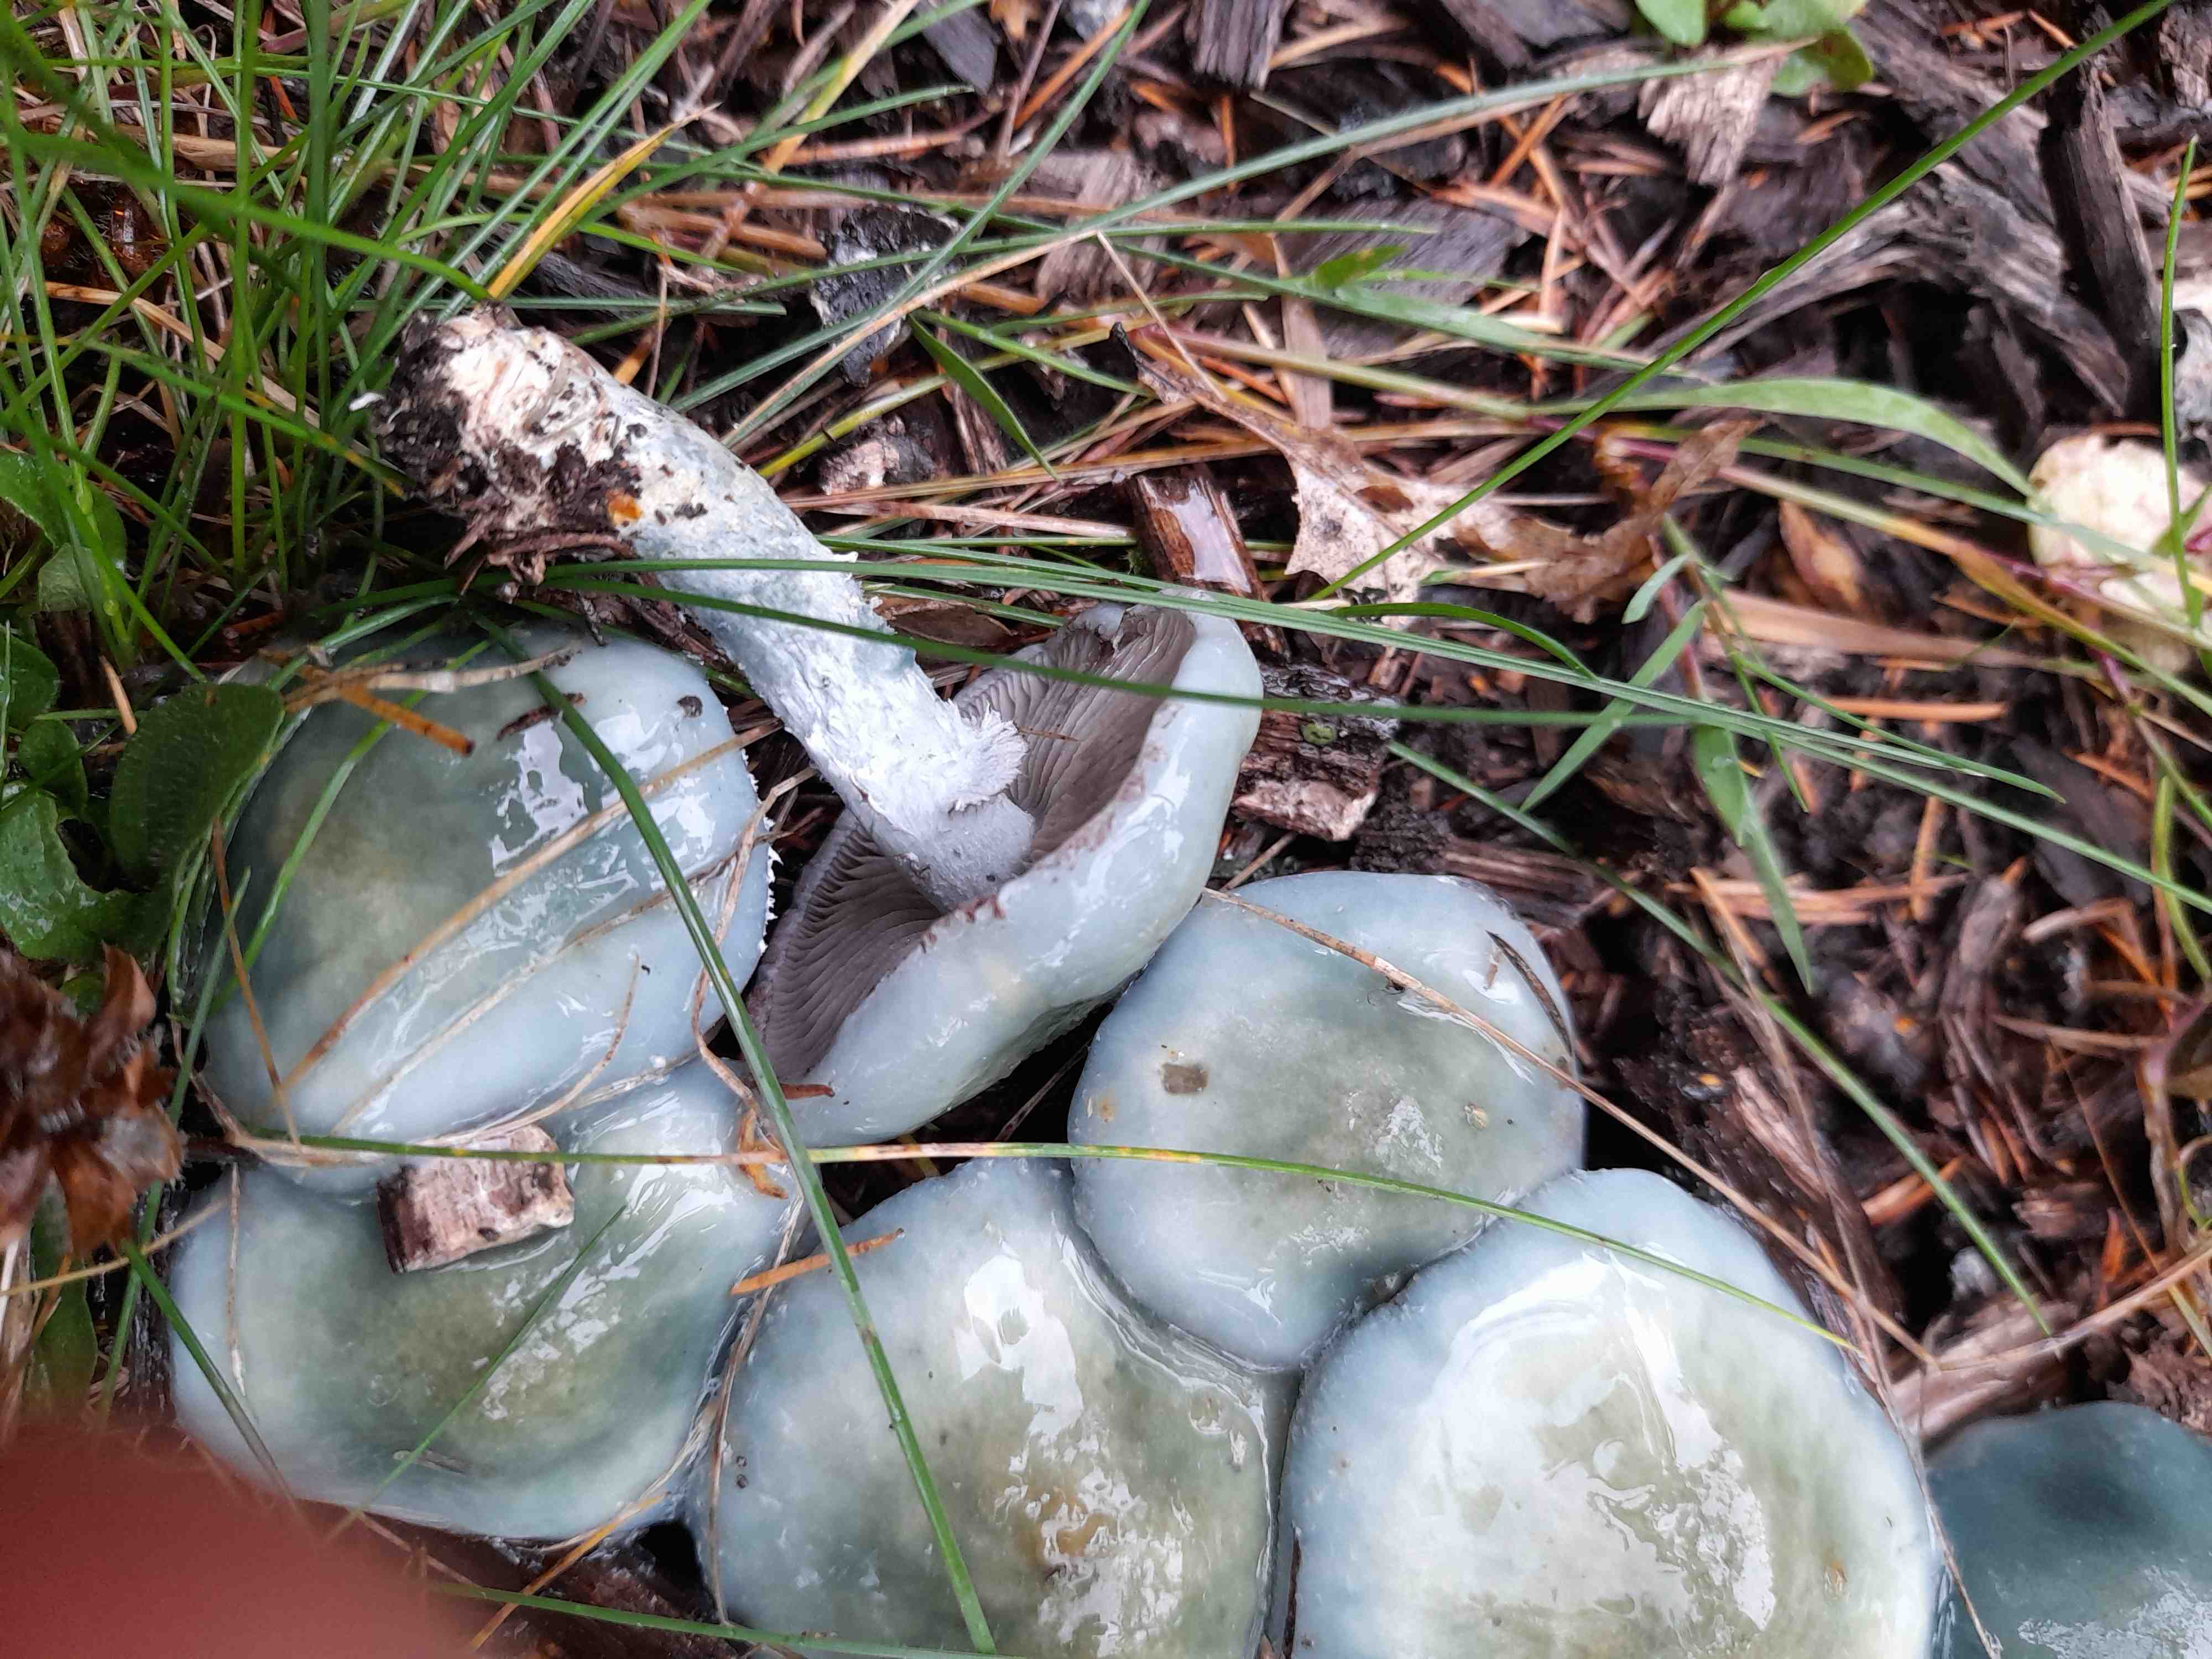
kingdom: Fungi
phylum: Basidiomycota
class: Agaricomycetes
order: Agaricales
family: Strophariaceae
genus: Stropharia
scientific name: Stropharia aeruginosa
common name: spanskgrøn bredblad
